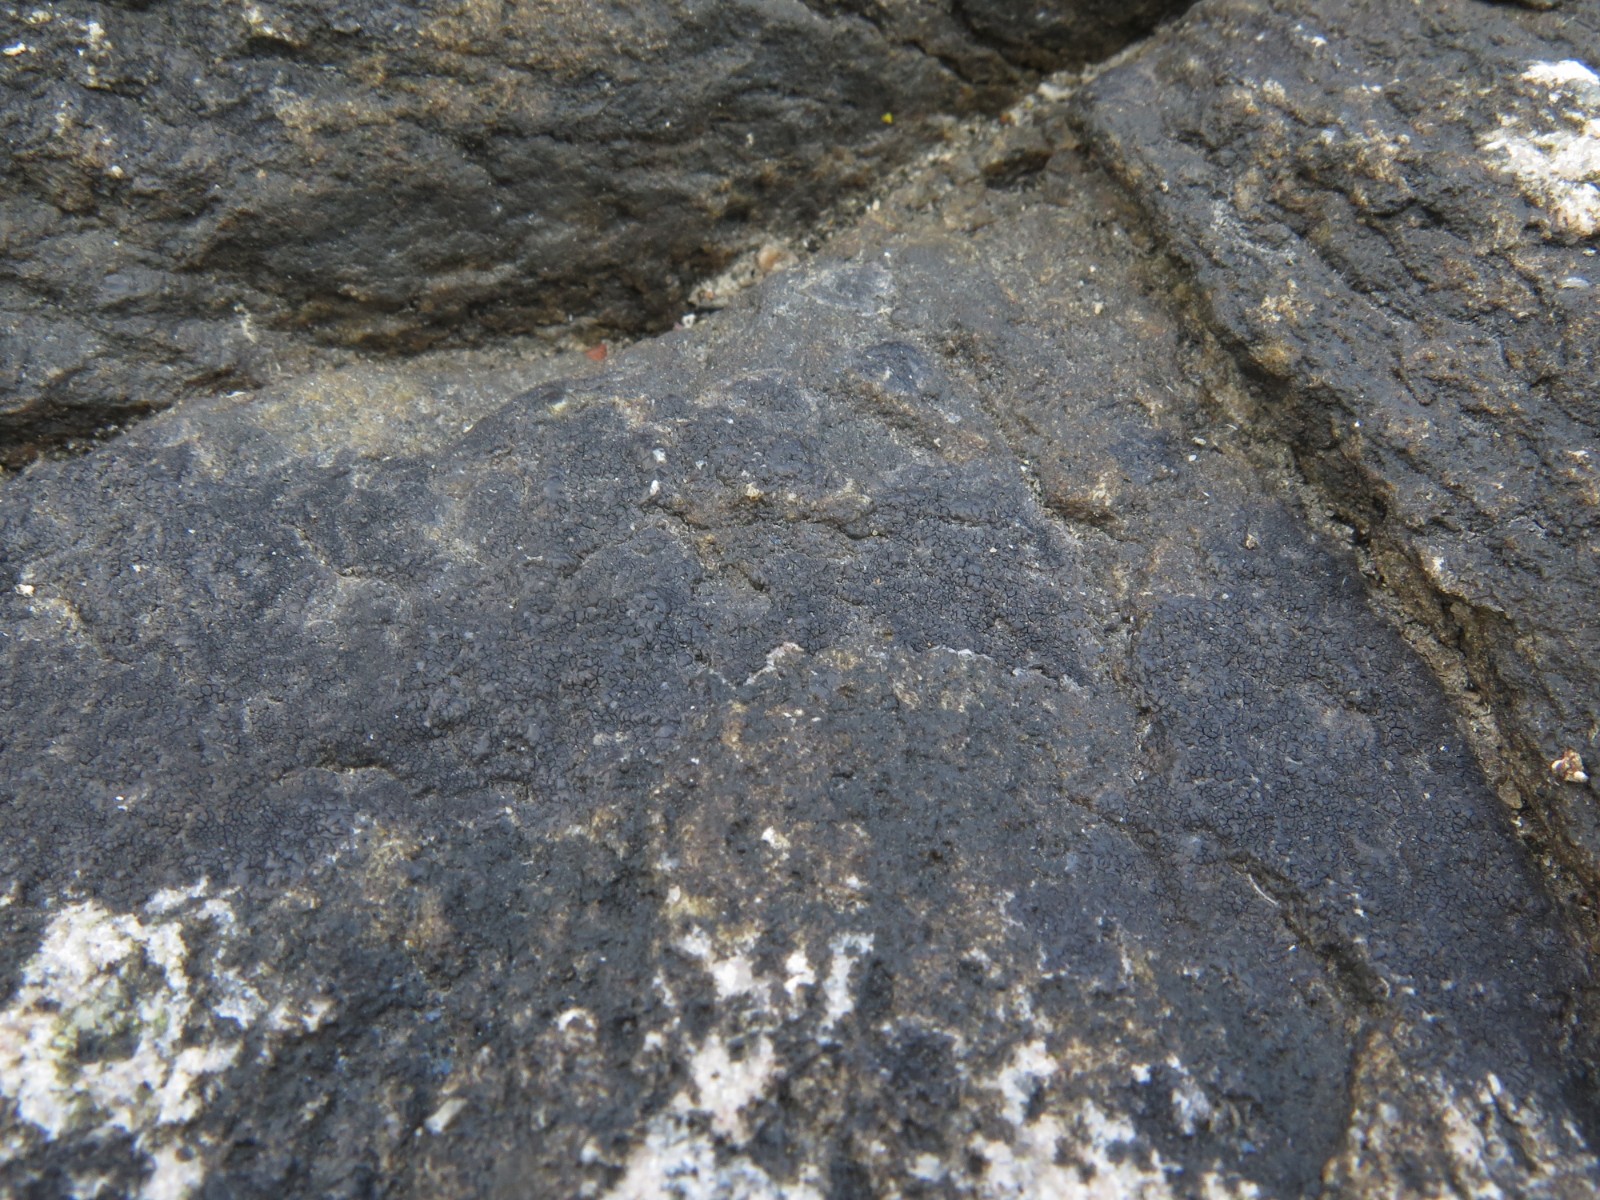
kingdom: Fungi
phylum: Ascomycota
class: Eurotiomycetes
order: Verrucariales
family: Verrucariaceae
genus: Hydropunctaria
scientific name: Hydropunctaria maura
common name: strand-vortelav
